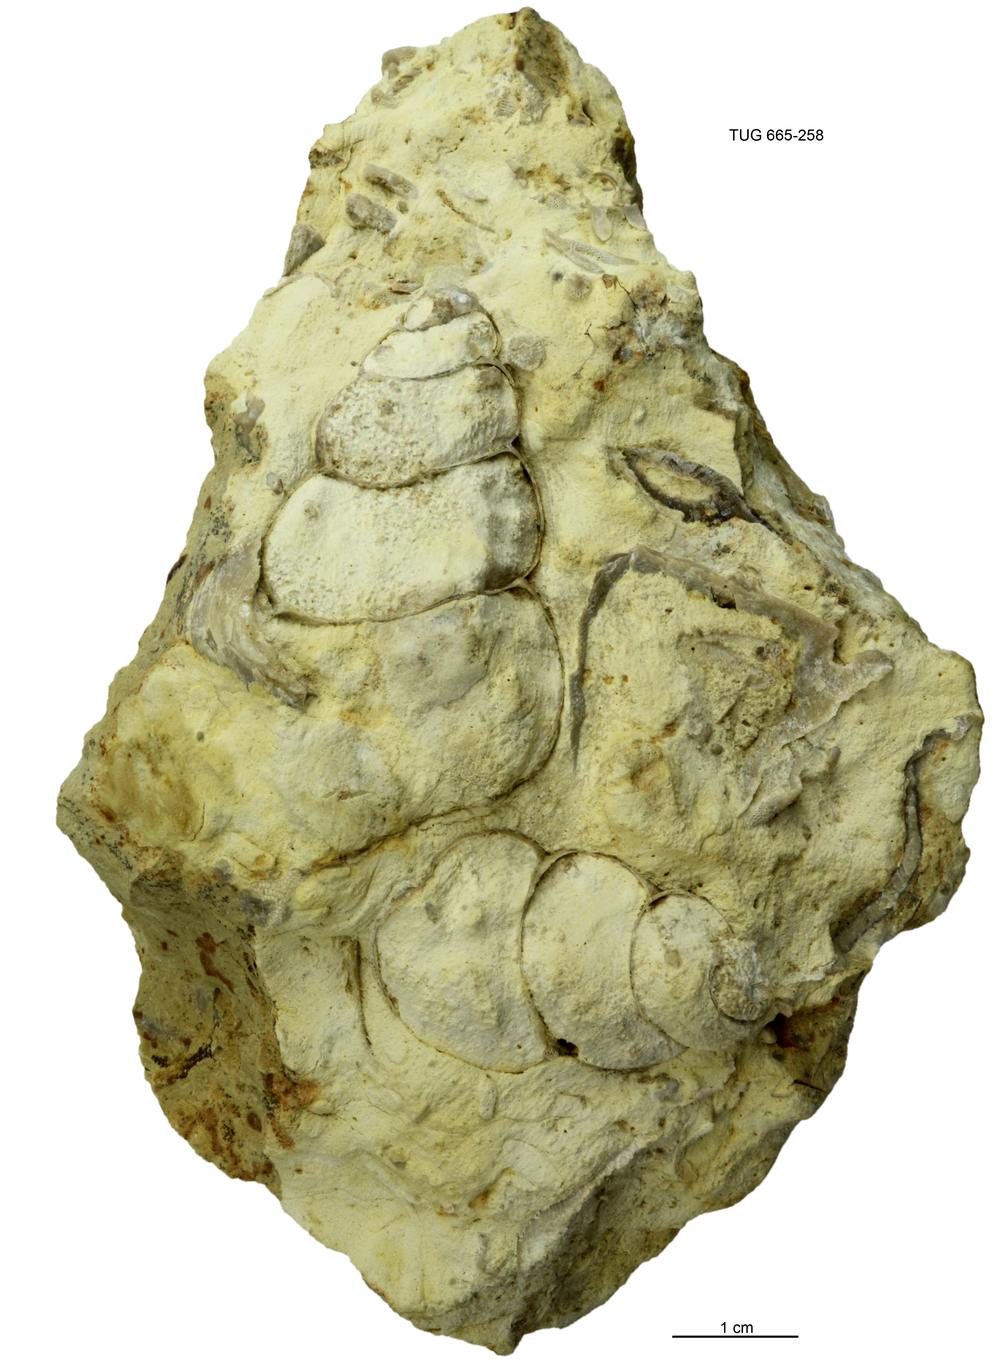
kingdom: Animalia
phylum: Mollusca
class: Gastropoda
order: Pleurotomariida
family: Murchisoniidae
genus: Hormotoma
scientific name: Hormotoma
